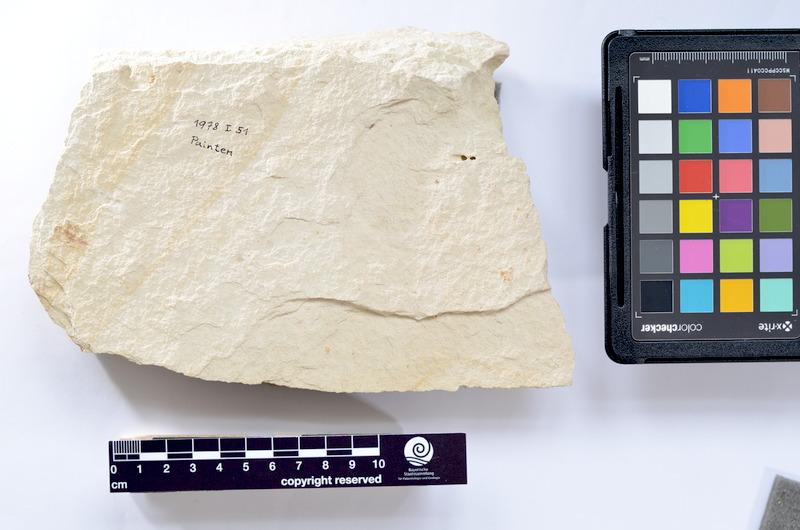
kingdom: Animalia
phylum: Chordata
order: Elopiformes
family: Anaethalionidae
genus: Anaethalion
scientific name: Anaethalion
